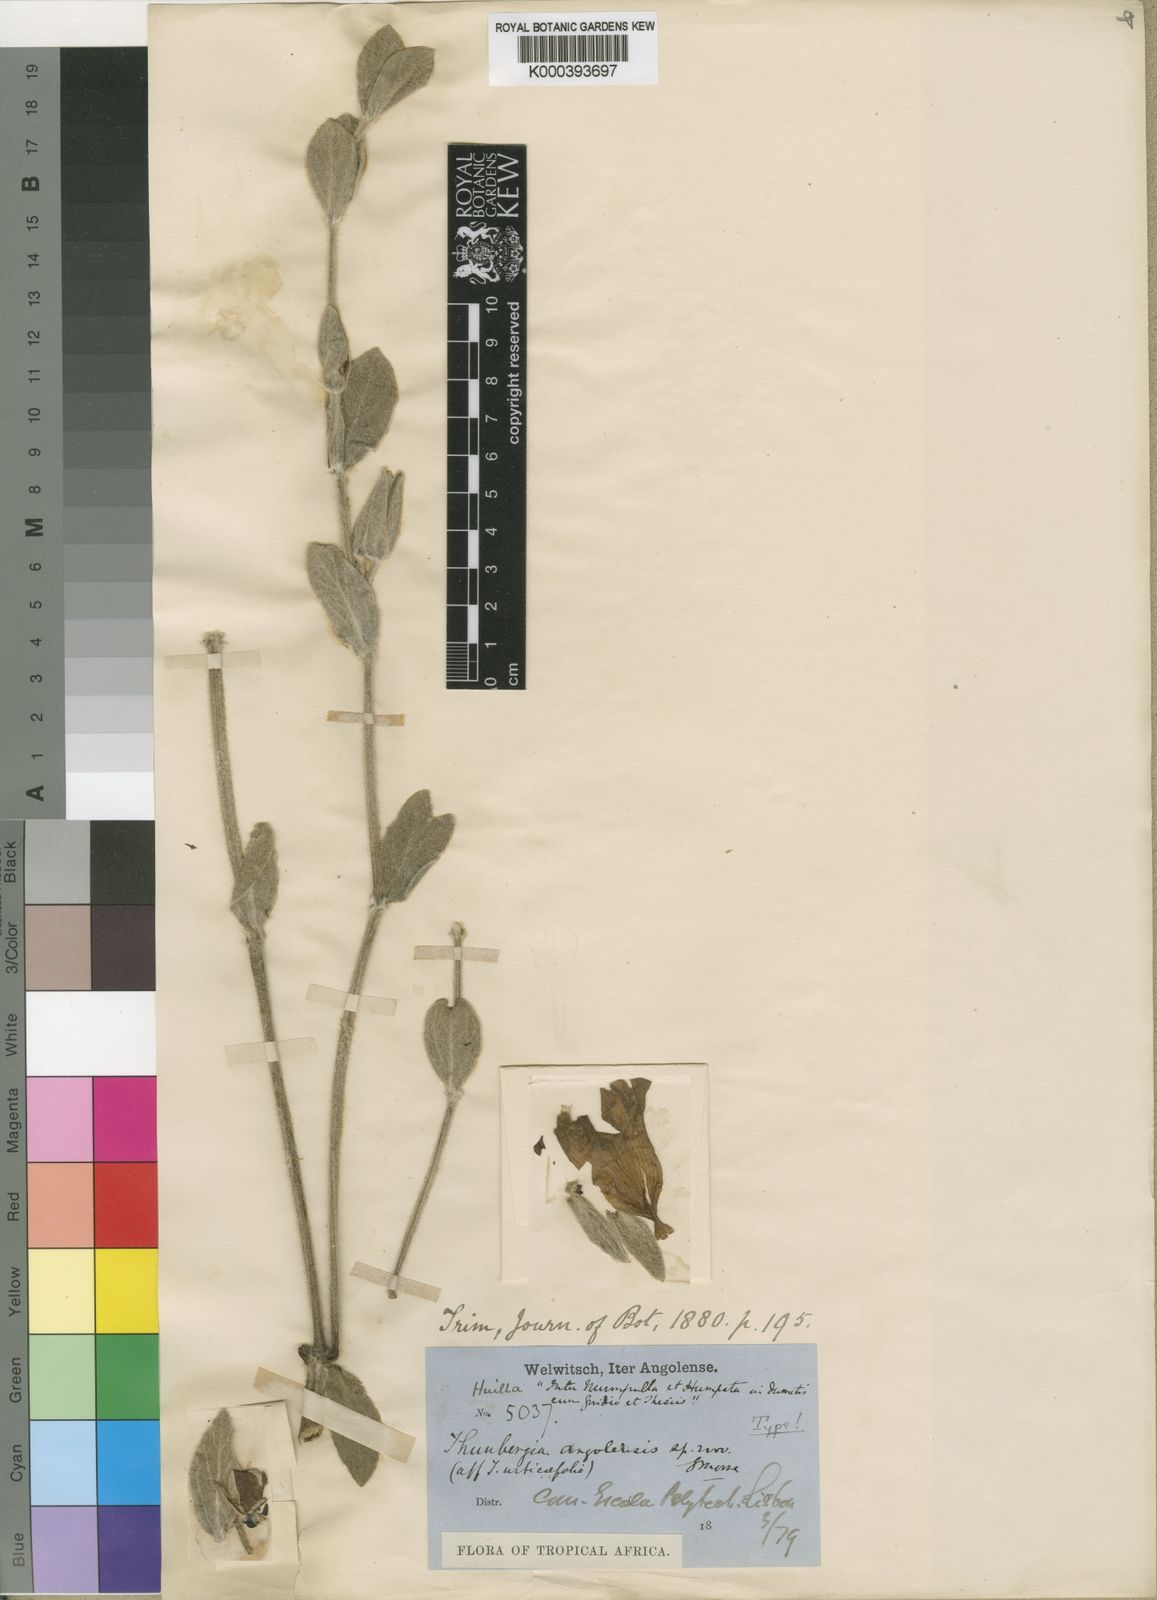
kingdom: Plantae
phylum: Tracheophyta
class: Magnoliopsida
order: Lamiales
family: Acanthaceae
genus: Thunbergia
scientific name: Thunbergia angolensis
